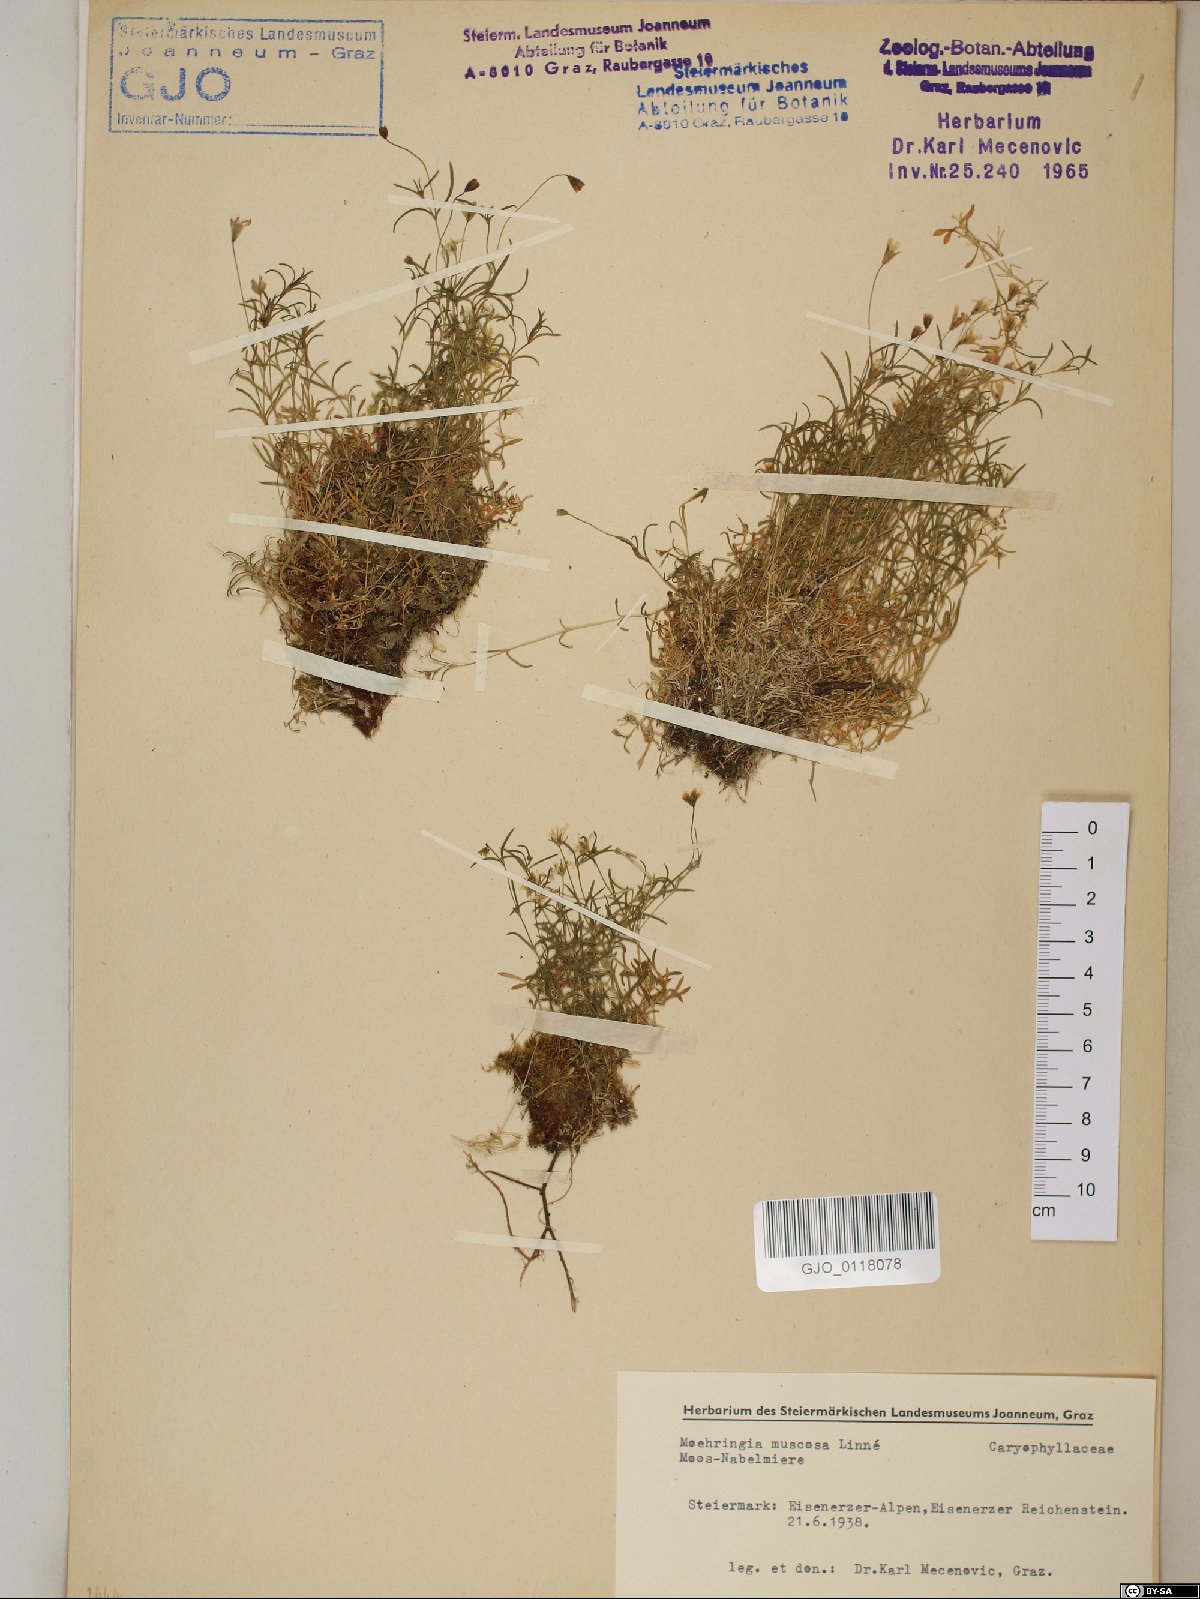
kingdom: Plantae
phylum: Tracheophyta
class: Magnoliopsida
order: Caryophyllales
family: Caryophyllaceae
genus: Moehringia
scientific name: Moehringia muscosa
